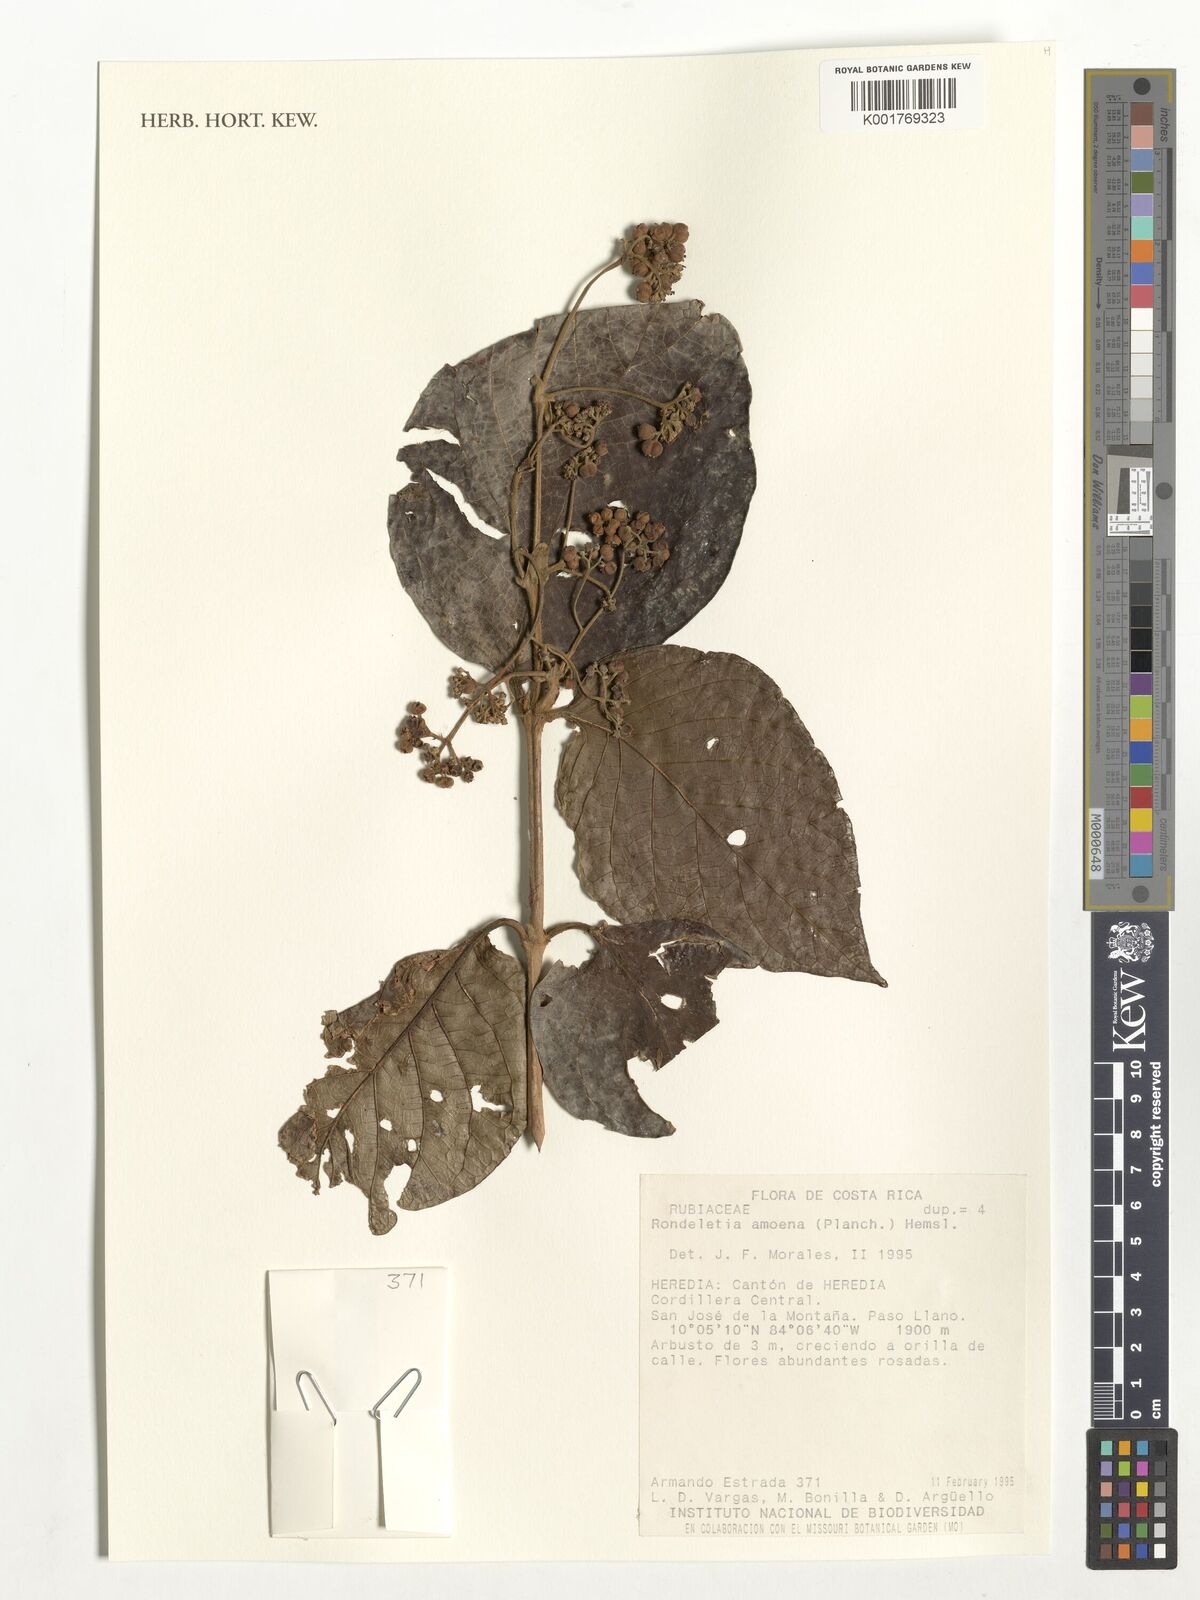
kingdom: Plantae
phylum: Tracheophyta
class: Magnoliopsida
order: Gentianales
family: Rubiaceae
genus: Rogiera
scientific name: Rogiera amoena
